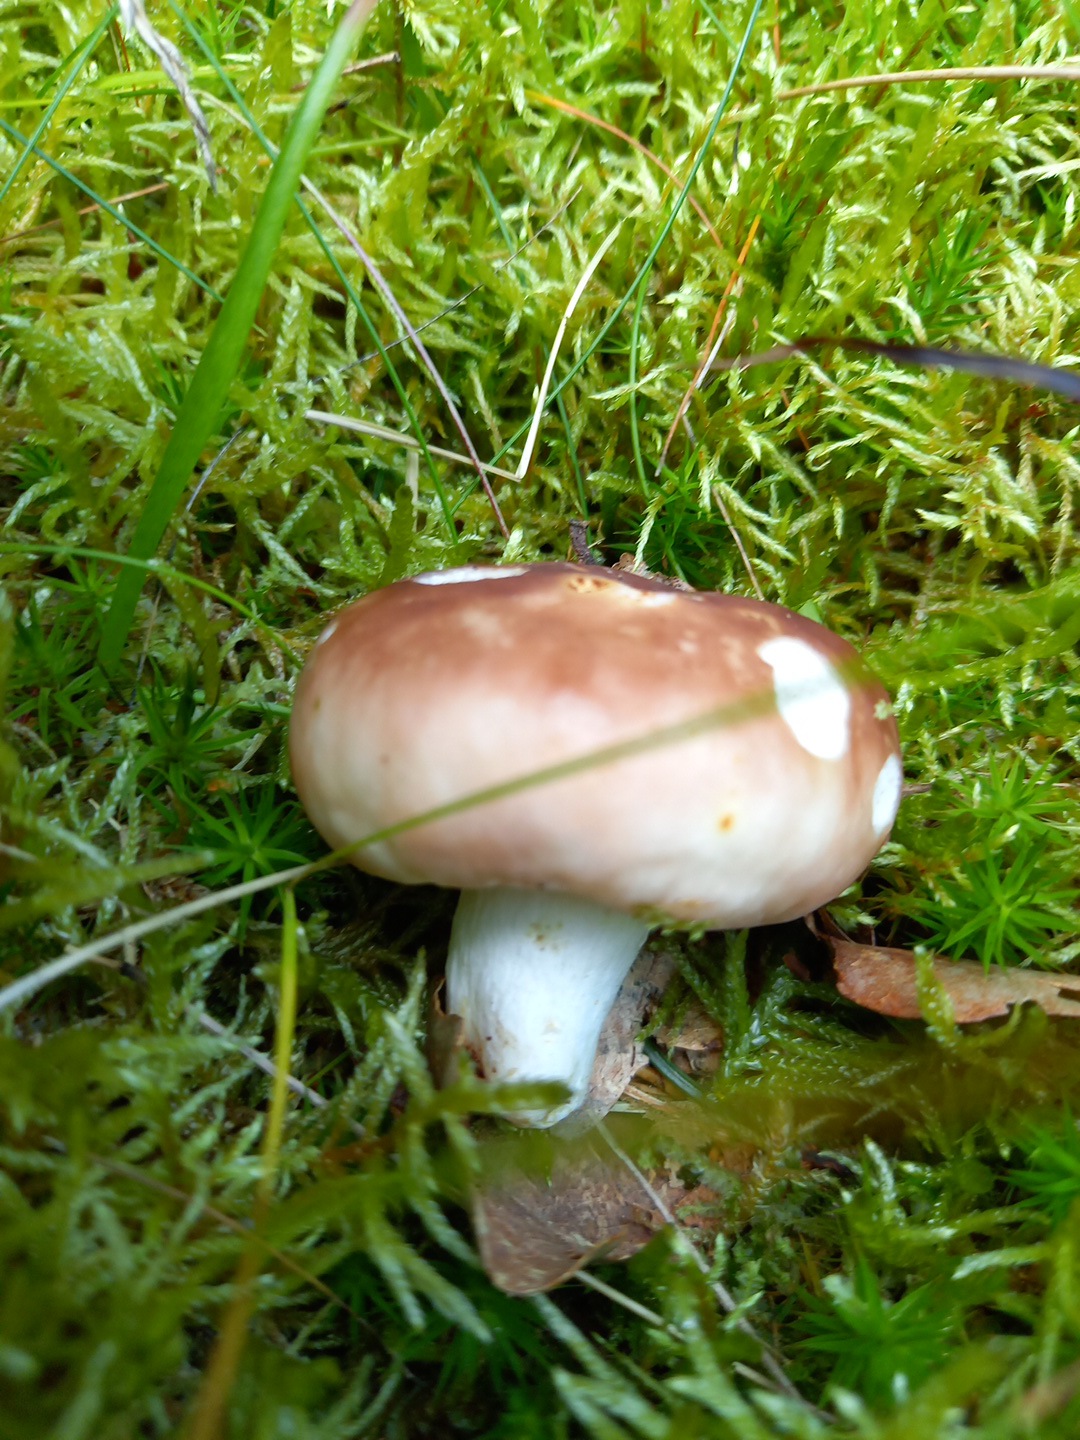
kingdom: Fungi
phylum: Basidiomycota
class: Agaricomycetes
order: Russulales
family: Russulaceae
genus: Russula
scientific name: Russula vesca
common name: spiselig skørhat
